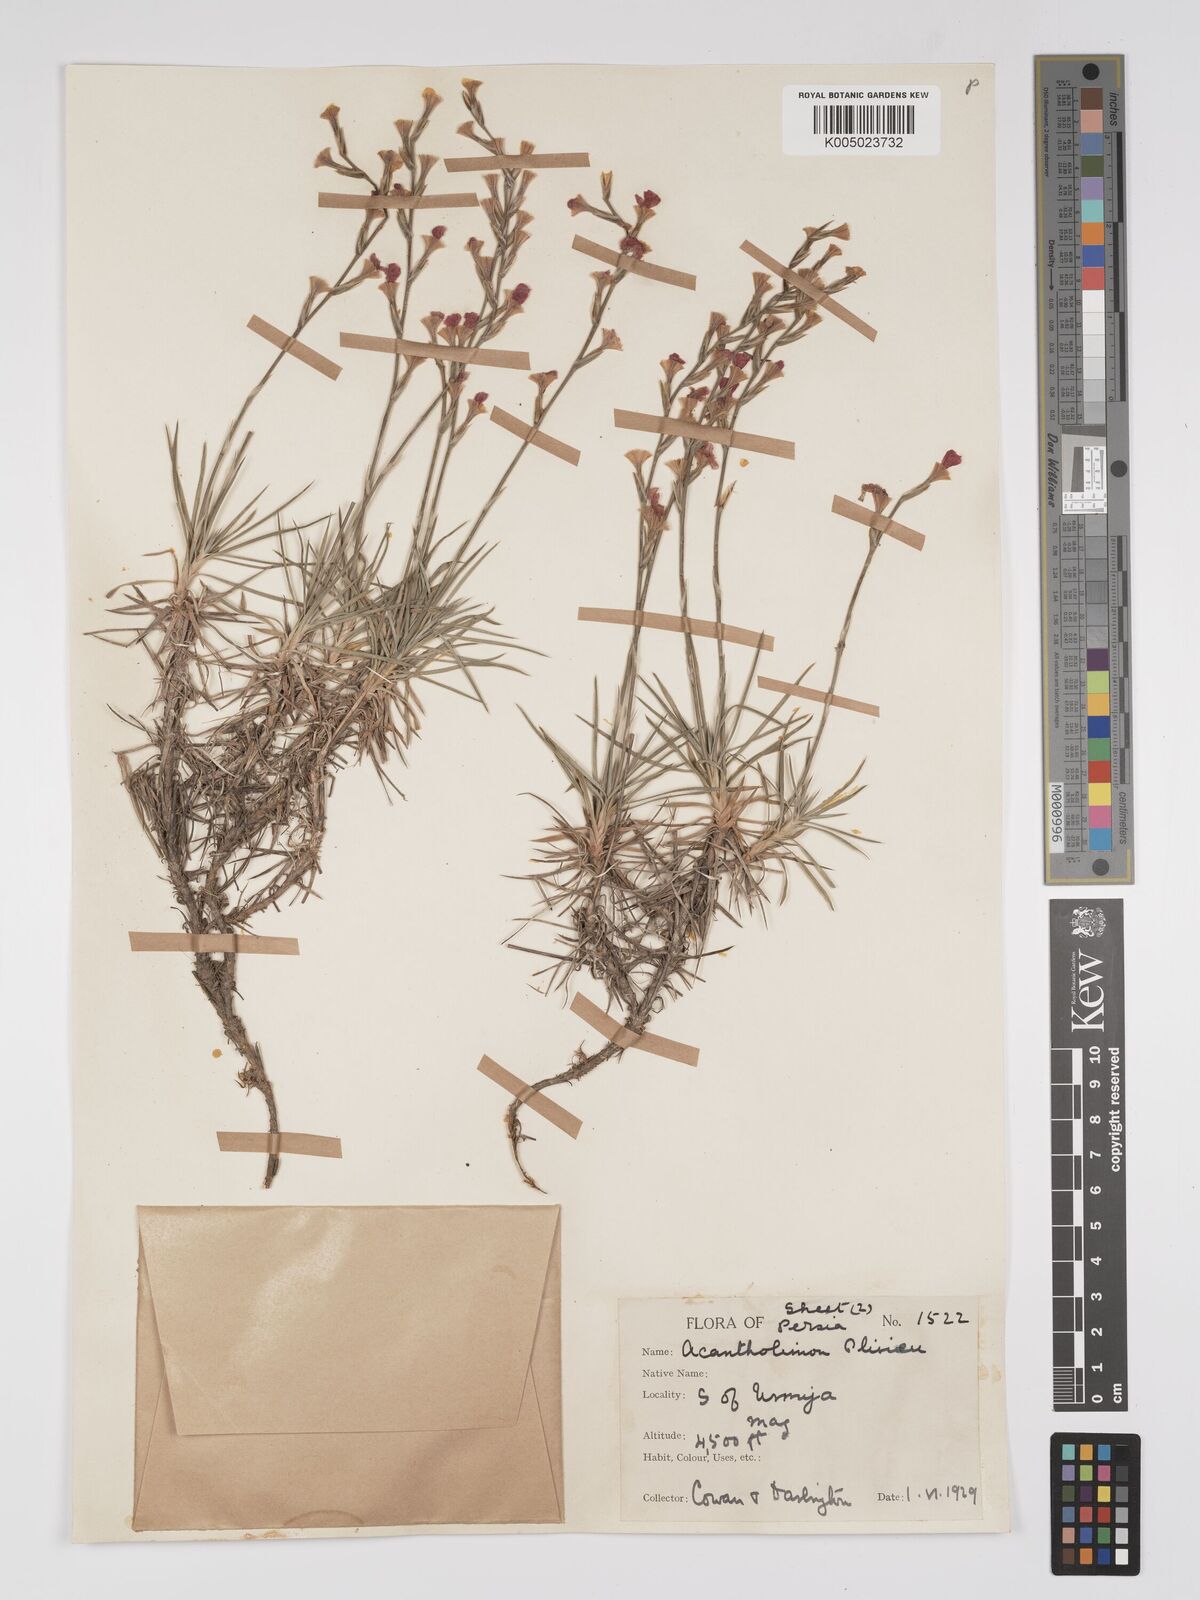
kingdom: Plantae
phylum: Tracheophyta
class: Magnoliopsida
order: Caryophyllales
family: Plumbaginaceae
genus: Acantholimon
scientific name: Acantholimon oliveri
